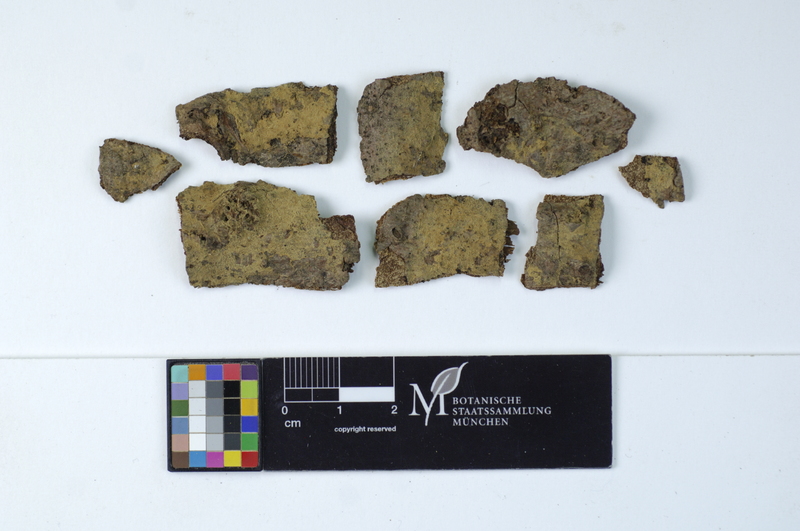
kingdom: Plantae
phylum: Tracheophyta
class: Pinopsida
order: Pinales
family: Pinaceae
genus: Abies
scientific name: Abies alba
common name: Silver fir
